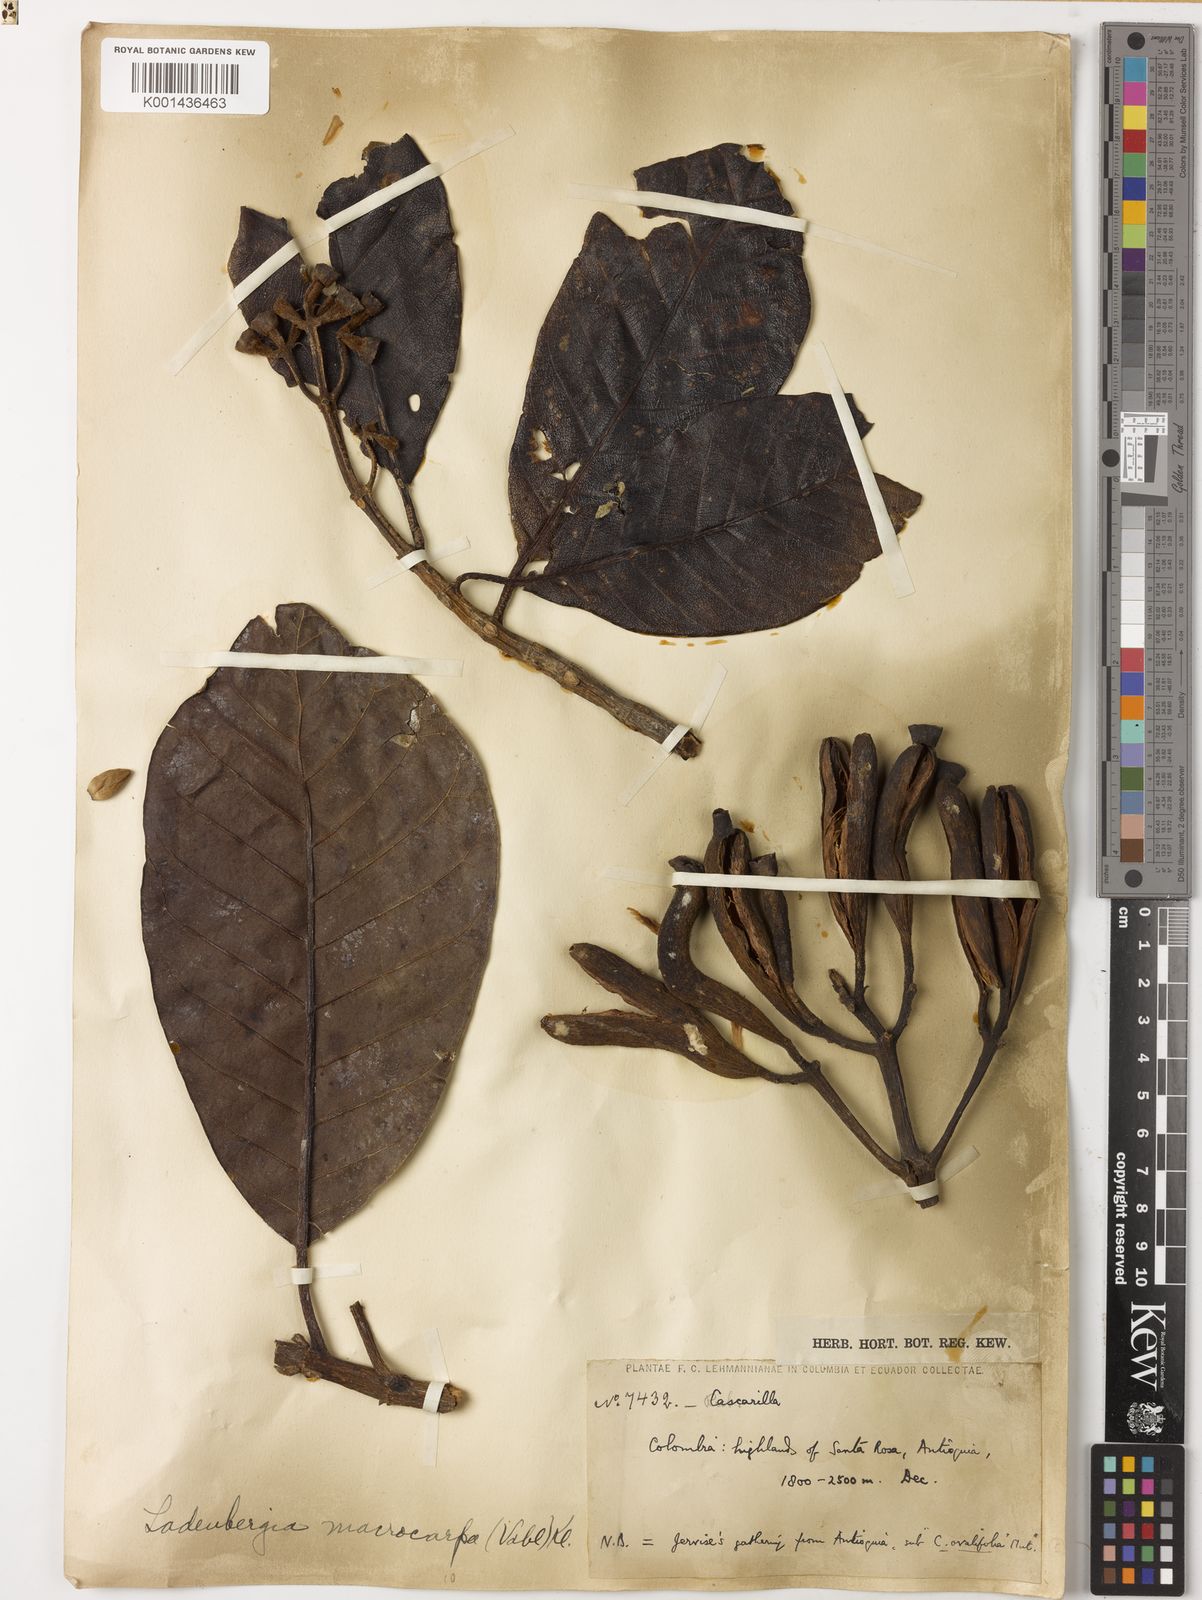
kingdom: Plantae
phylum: Tracheophyta
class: Magnoliopsida
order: Gentianales
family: Rubiaceae
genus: Ladenbergia
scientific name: Ladenbergia macrocarpa
